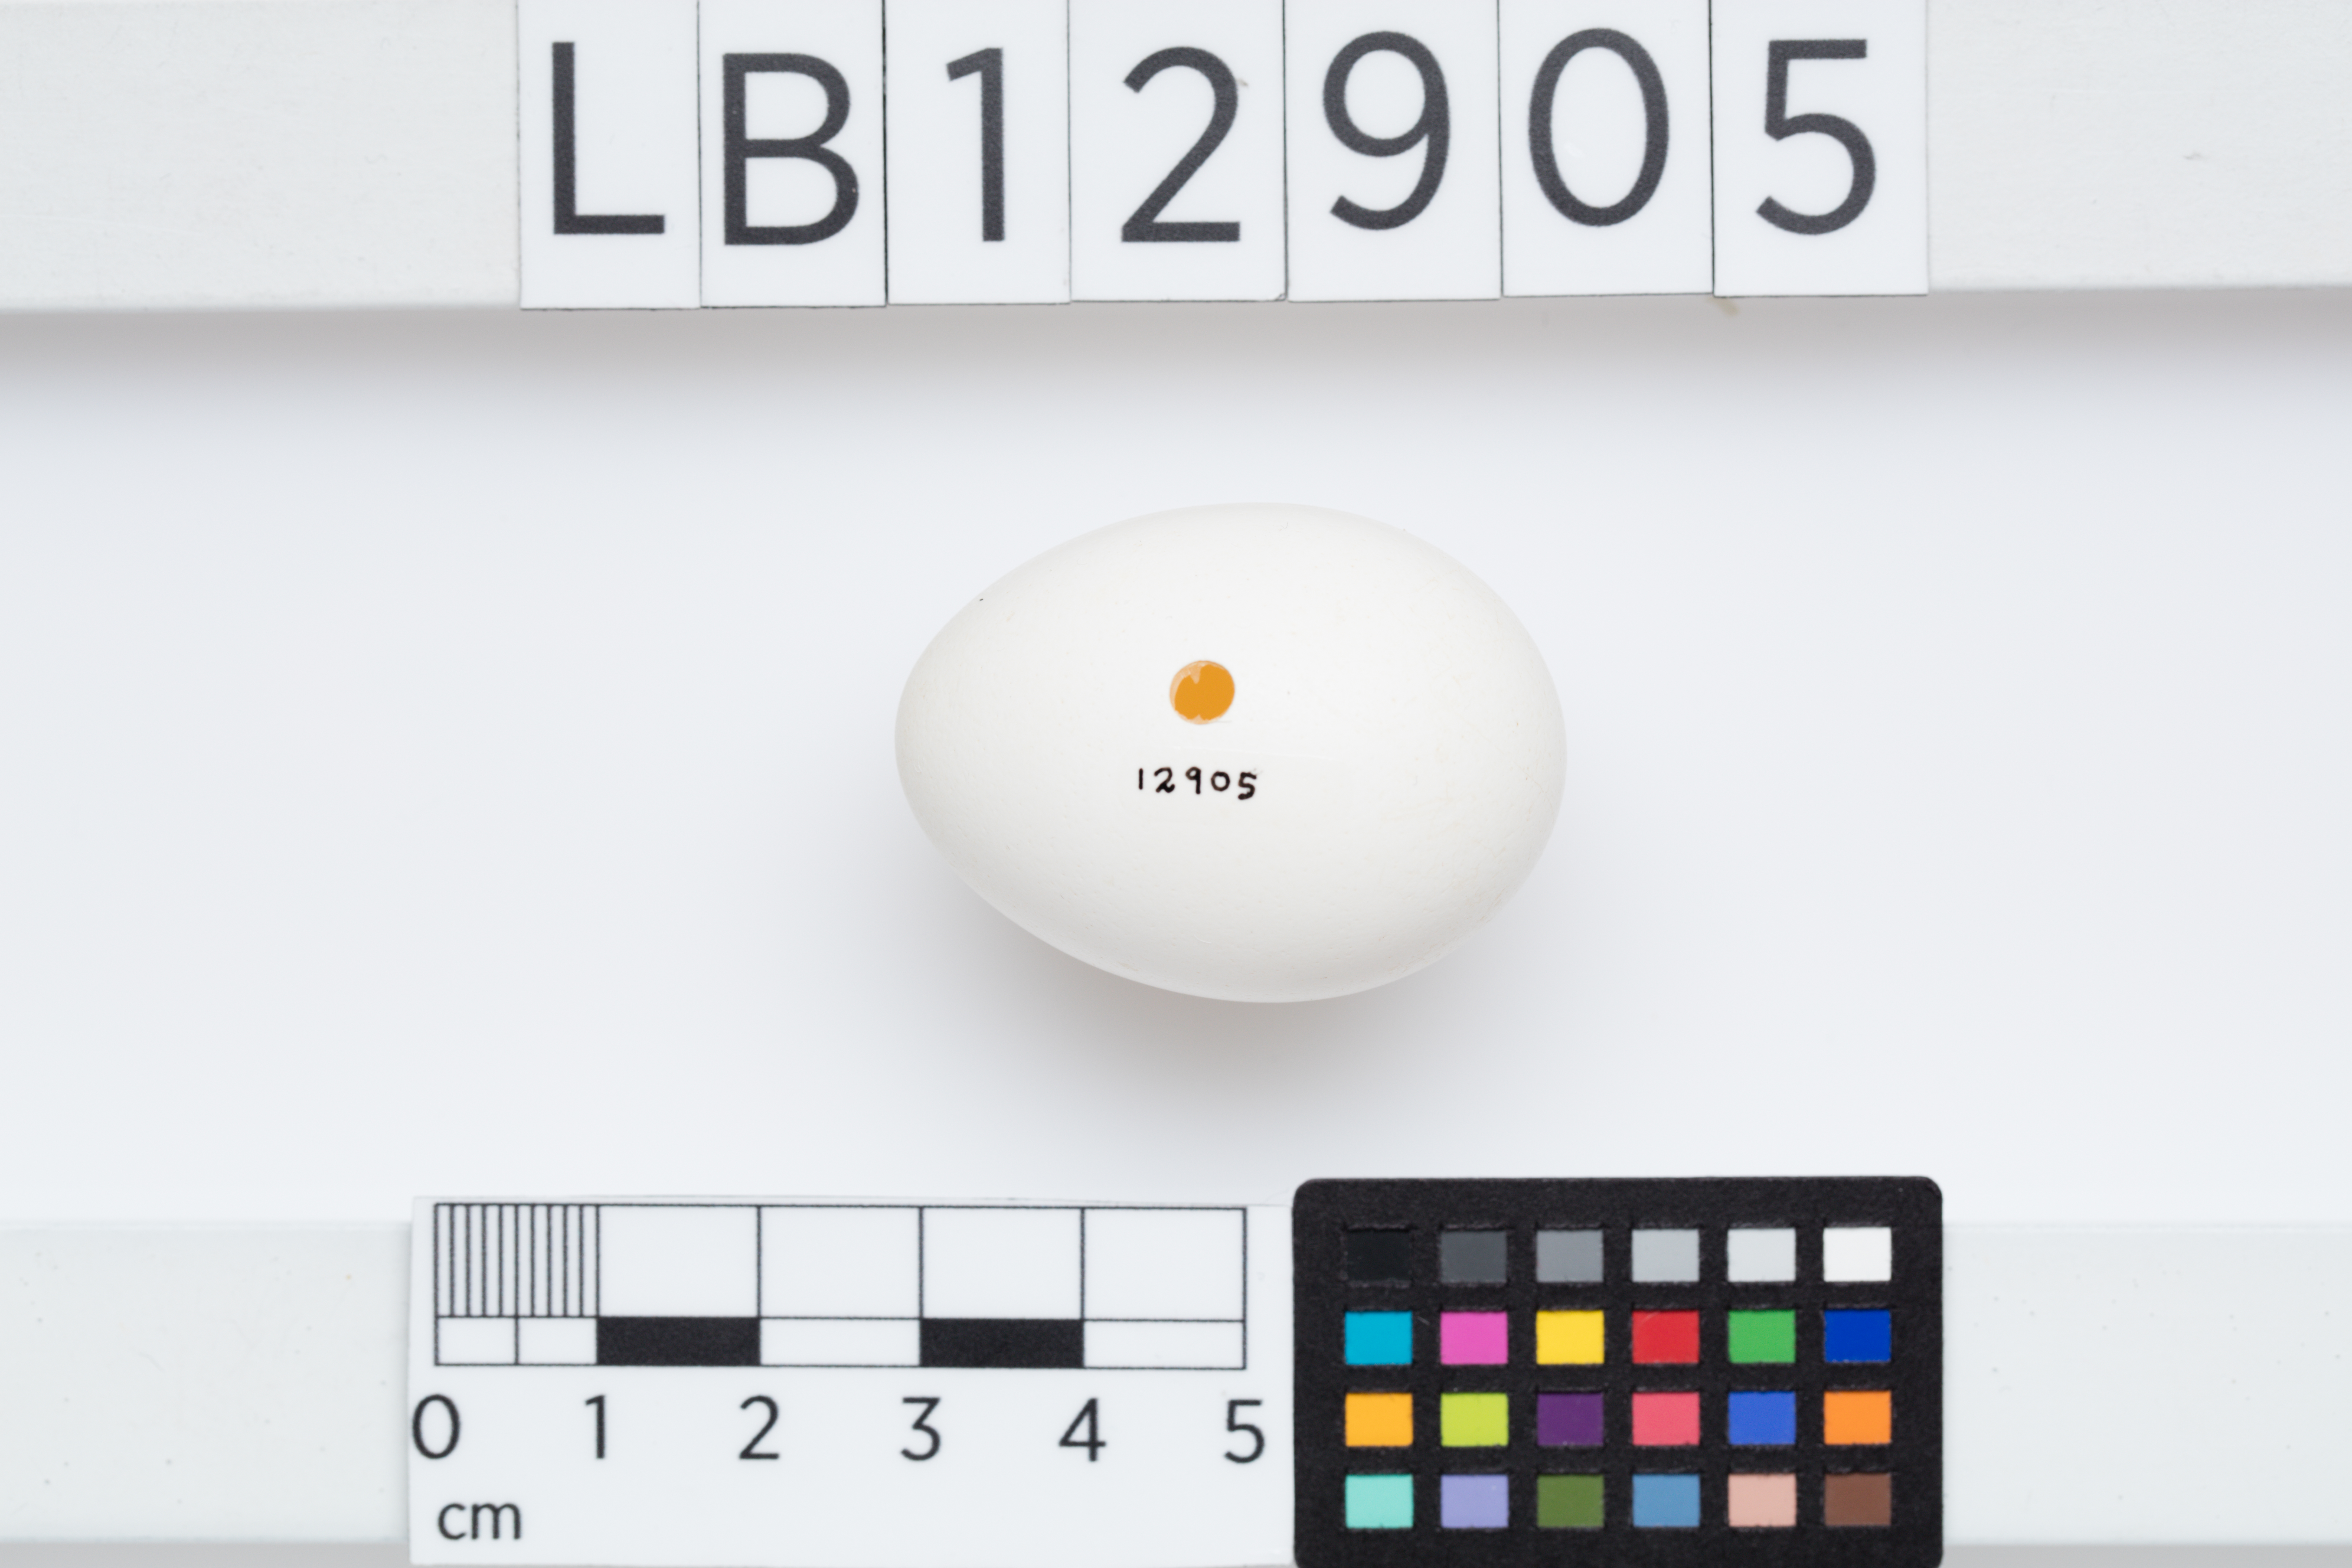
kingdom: Animalia
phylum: Chordata
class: Aves
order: Psittaciformes
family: Psittacidae
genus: Nestor
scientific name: Nestor meridionalis
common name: New zealand kaka
